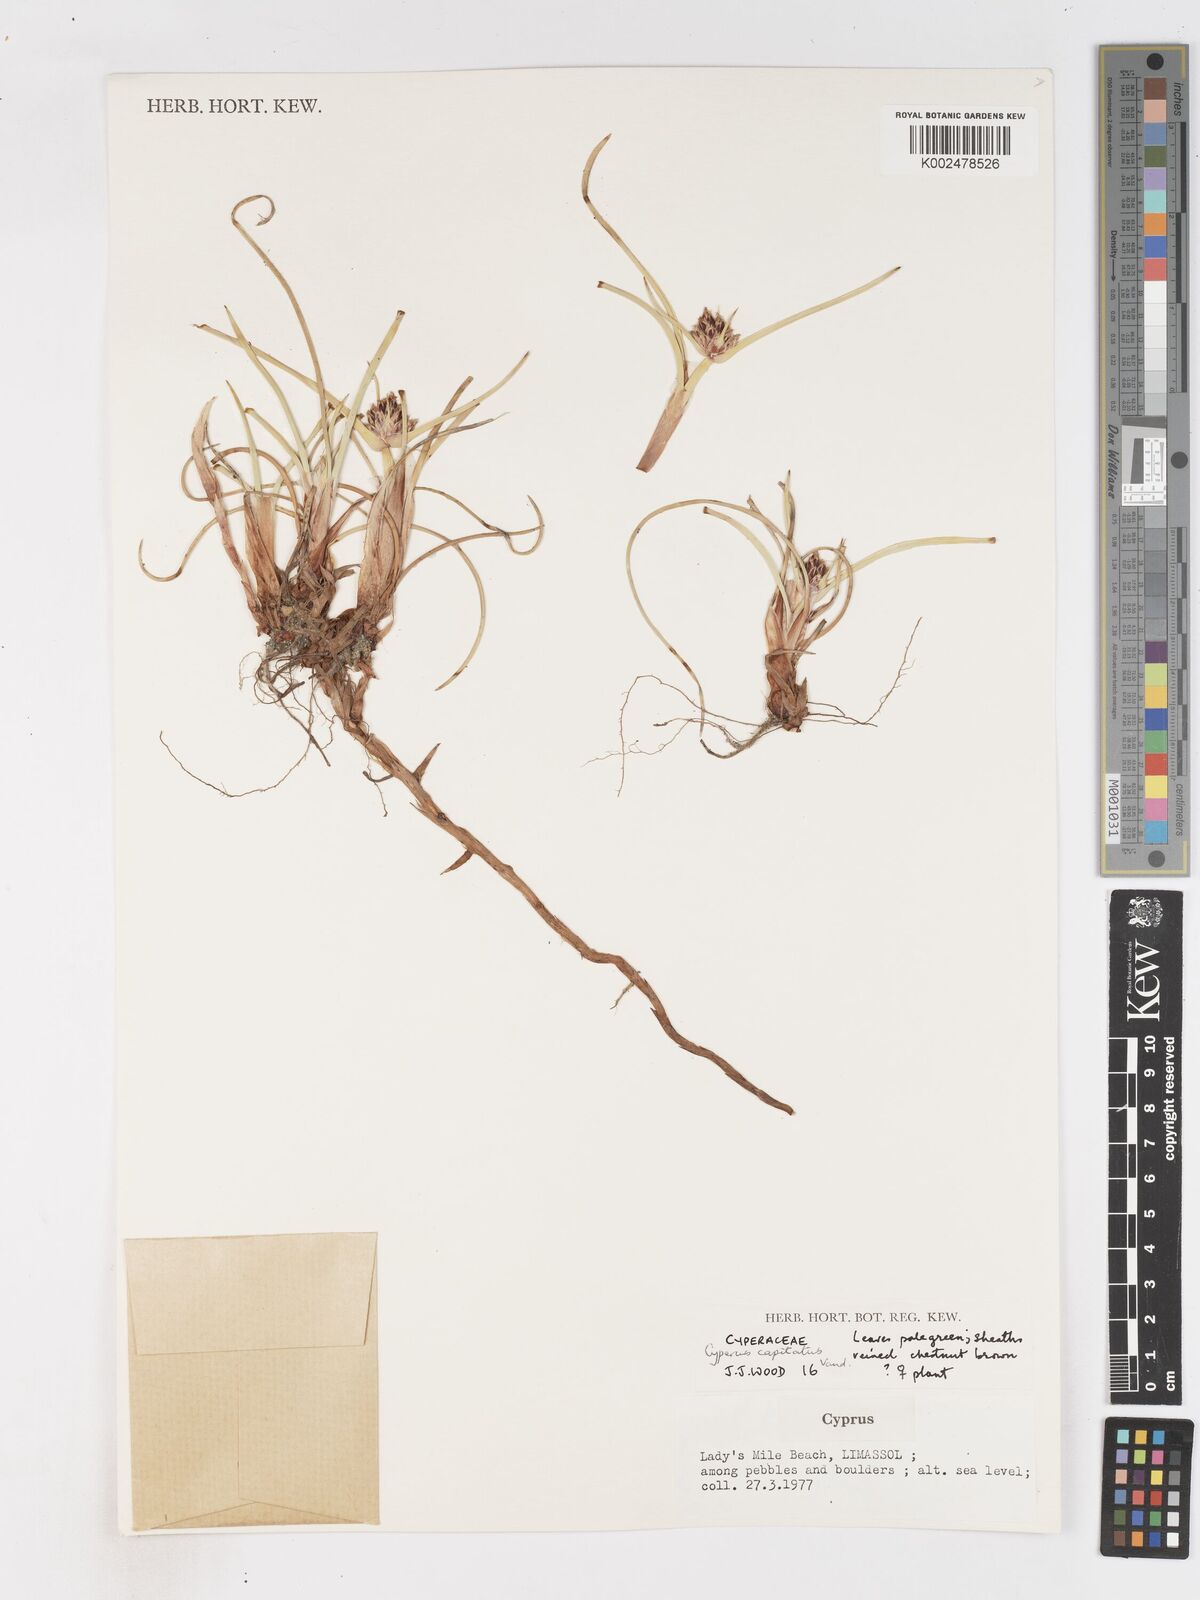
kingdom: Plantae
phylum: Tracheophyta
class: Liliopsida
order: Poales
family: Cyperaceae
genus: Cyperus
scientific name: Cyperus capitatus
